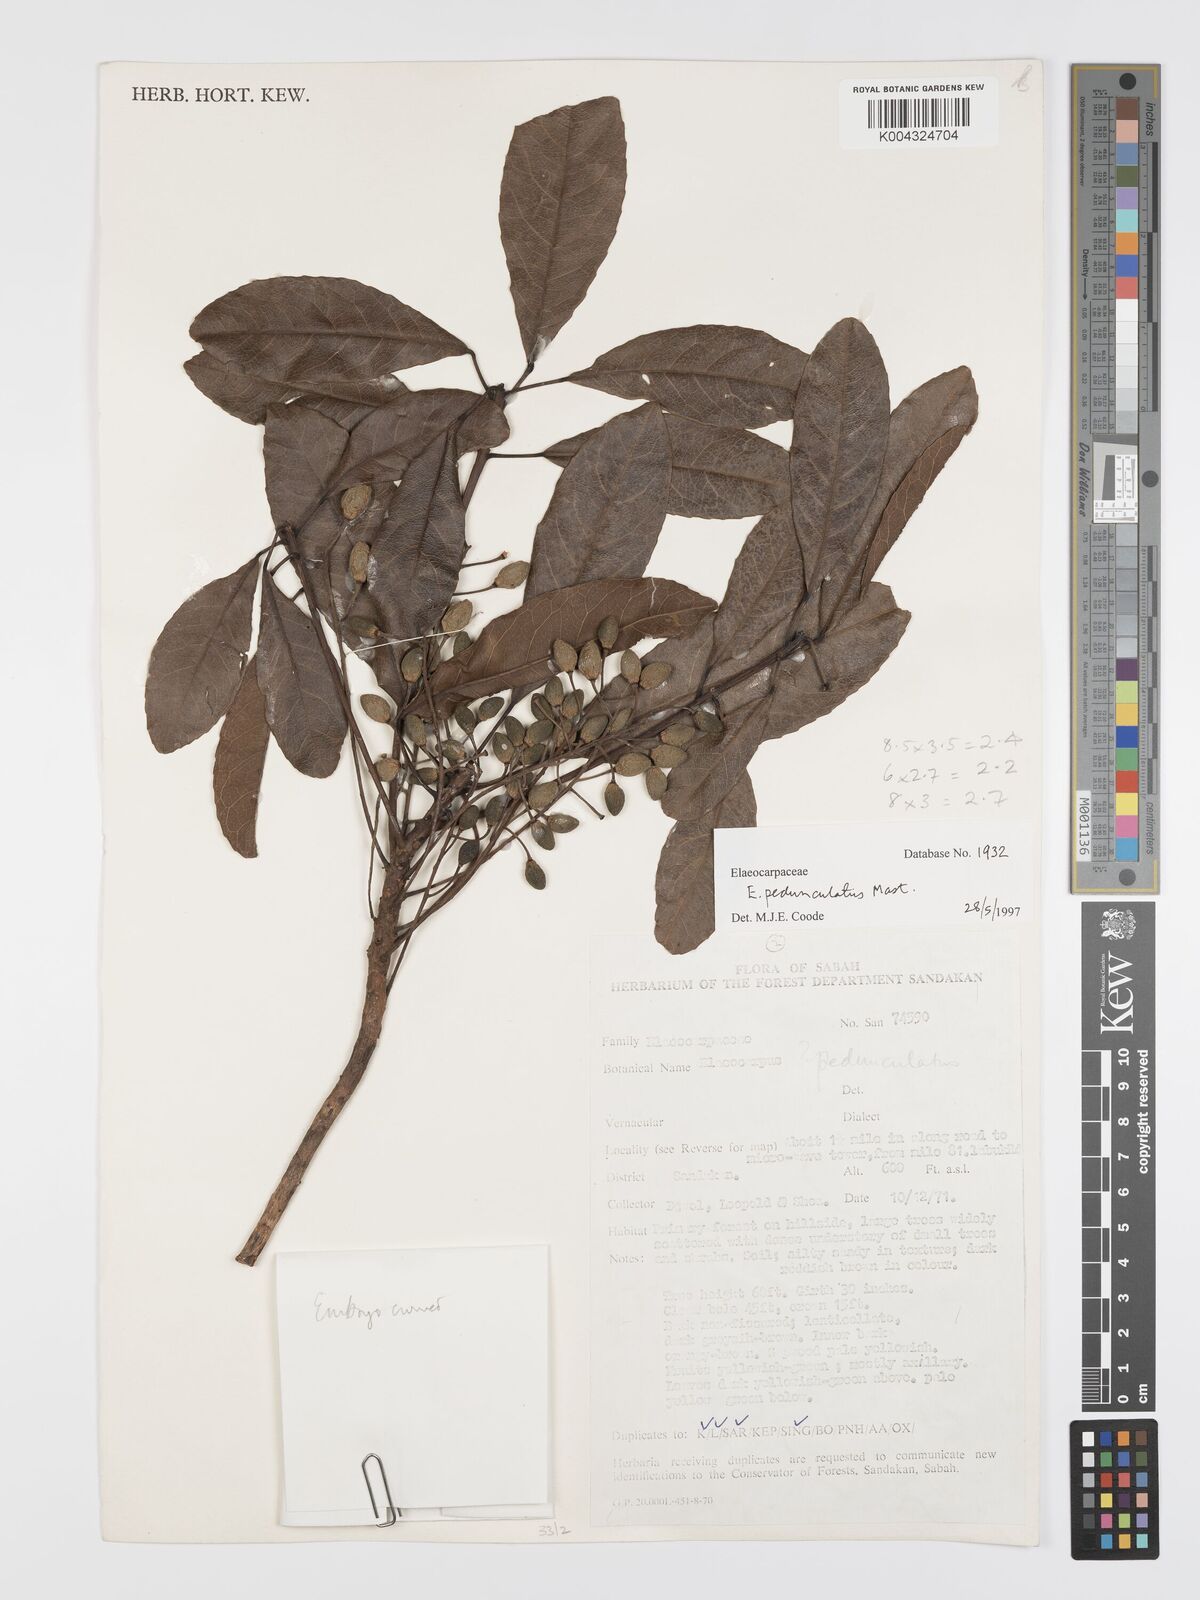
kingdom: Plantae
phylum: Tracheophyta
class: Magnoliopsida
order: Oxalidales
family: Elaeocarpaceae
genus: Elaeocarpus
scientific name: Elaeocarpus pedunculatus
